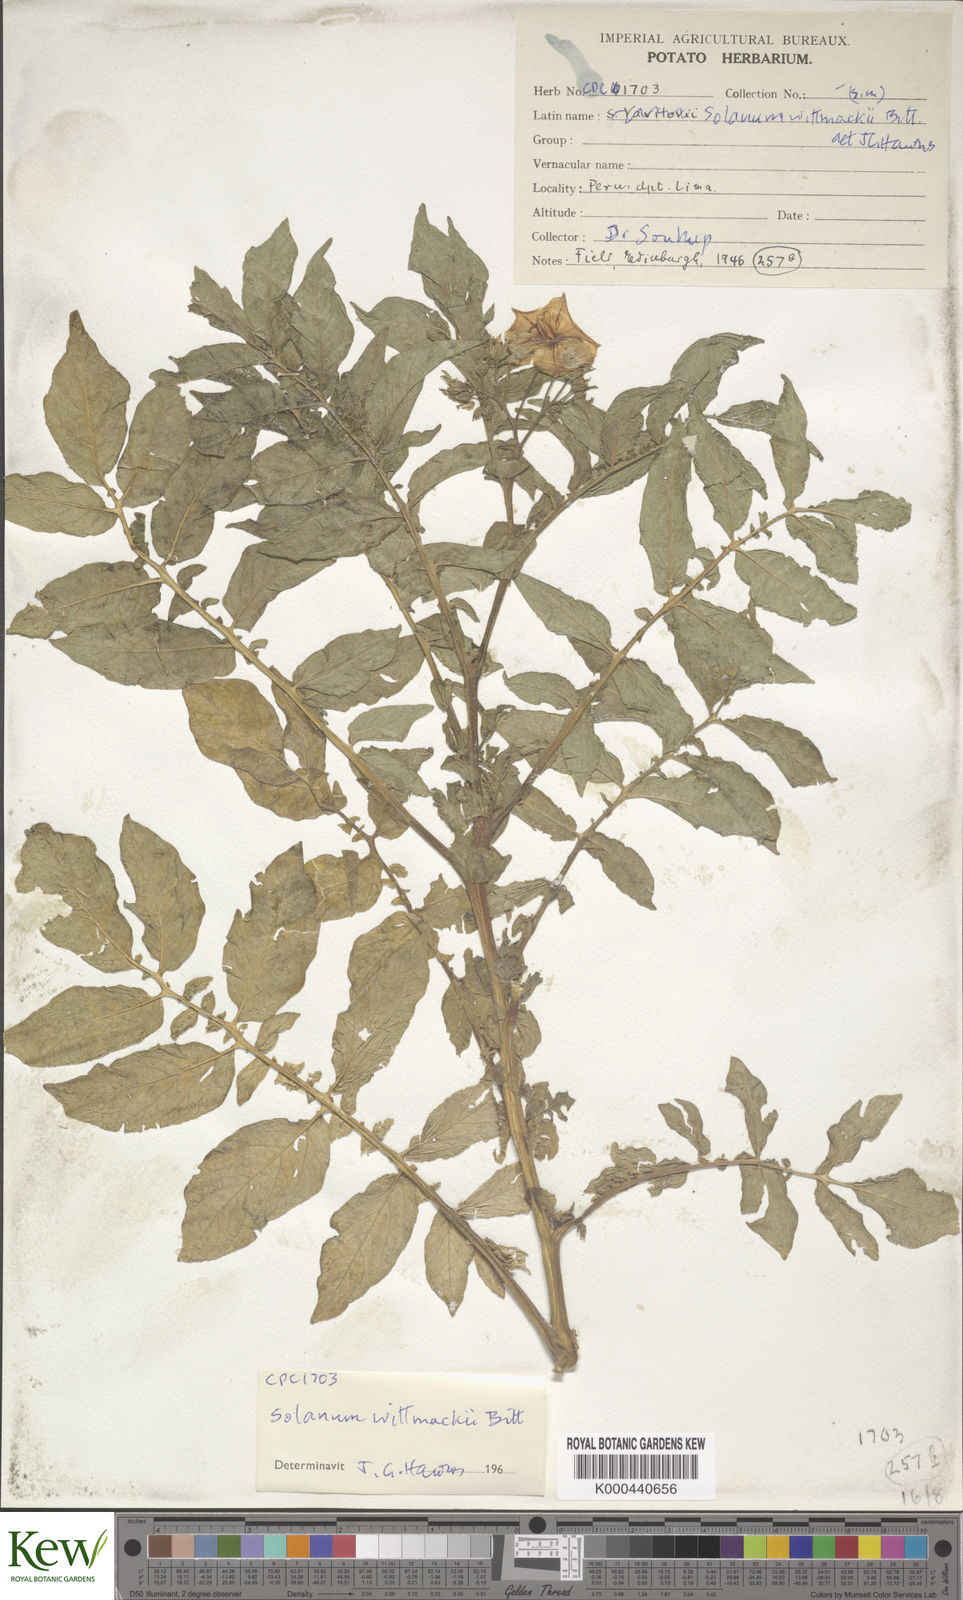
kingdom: Plantae
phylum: Tracheophyta
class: Magnoliopsida
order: Solanales
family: Solanaceae
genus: Solanum
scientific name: Solanum wittmackii
